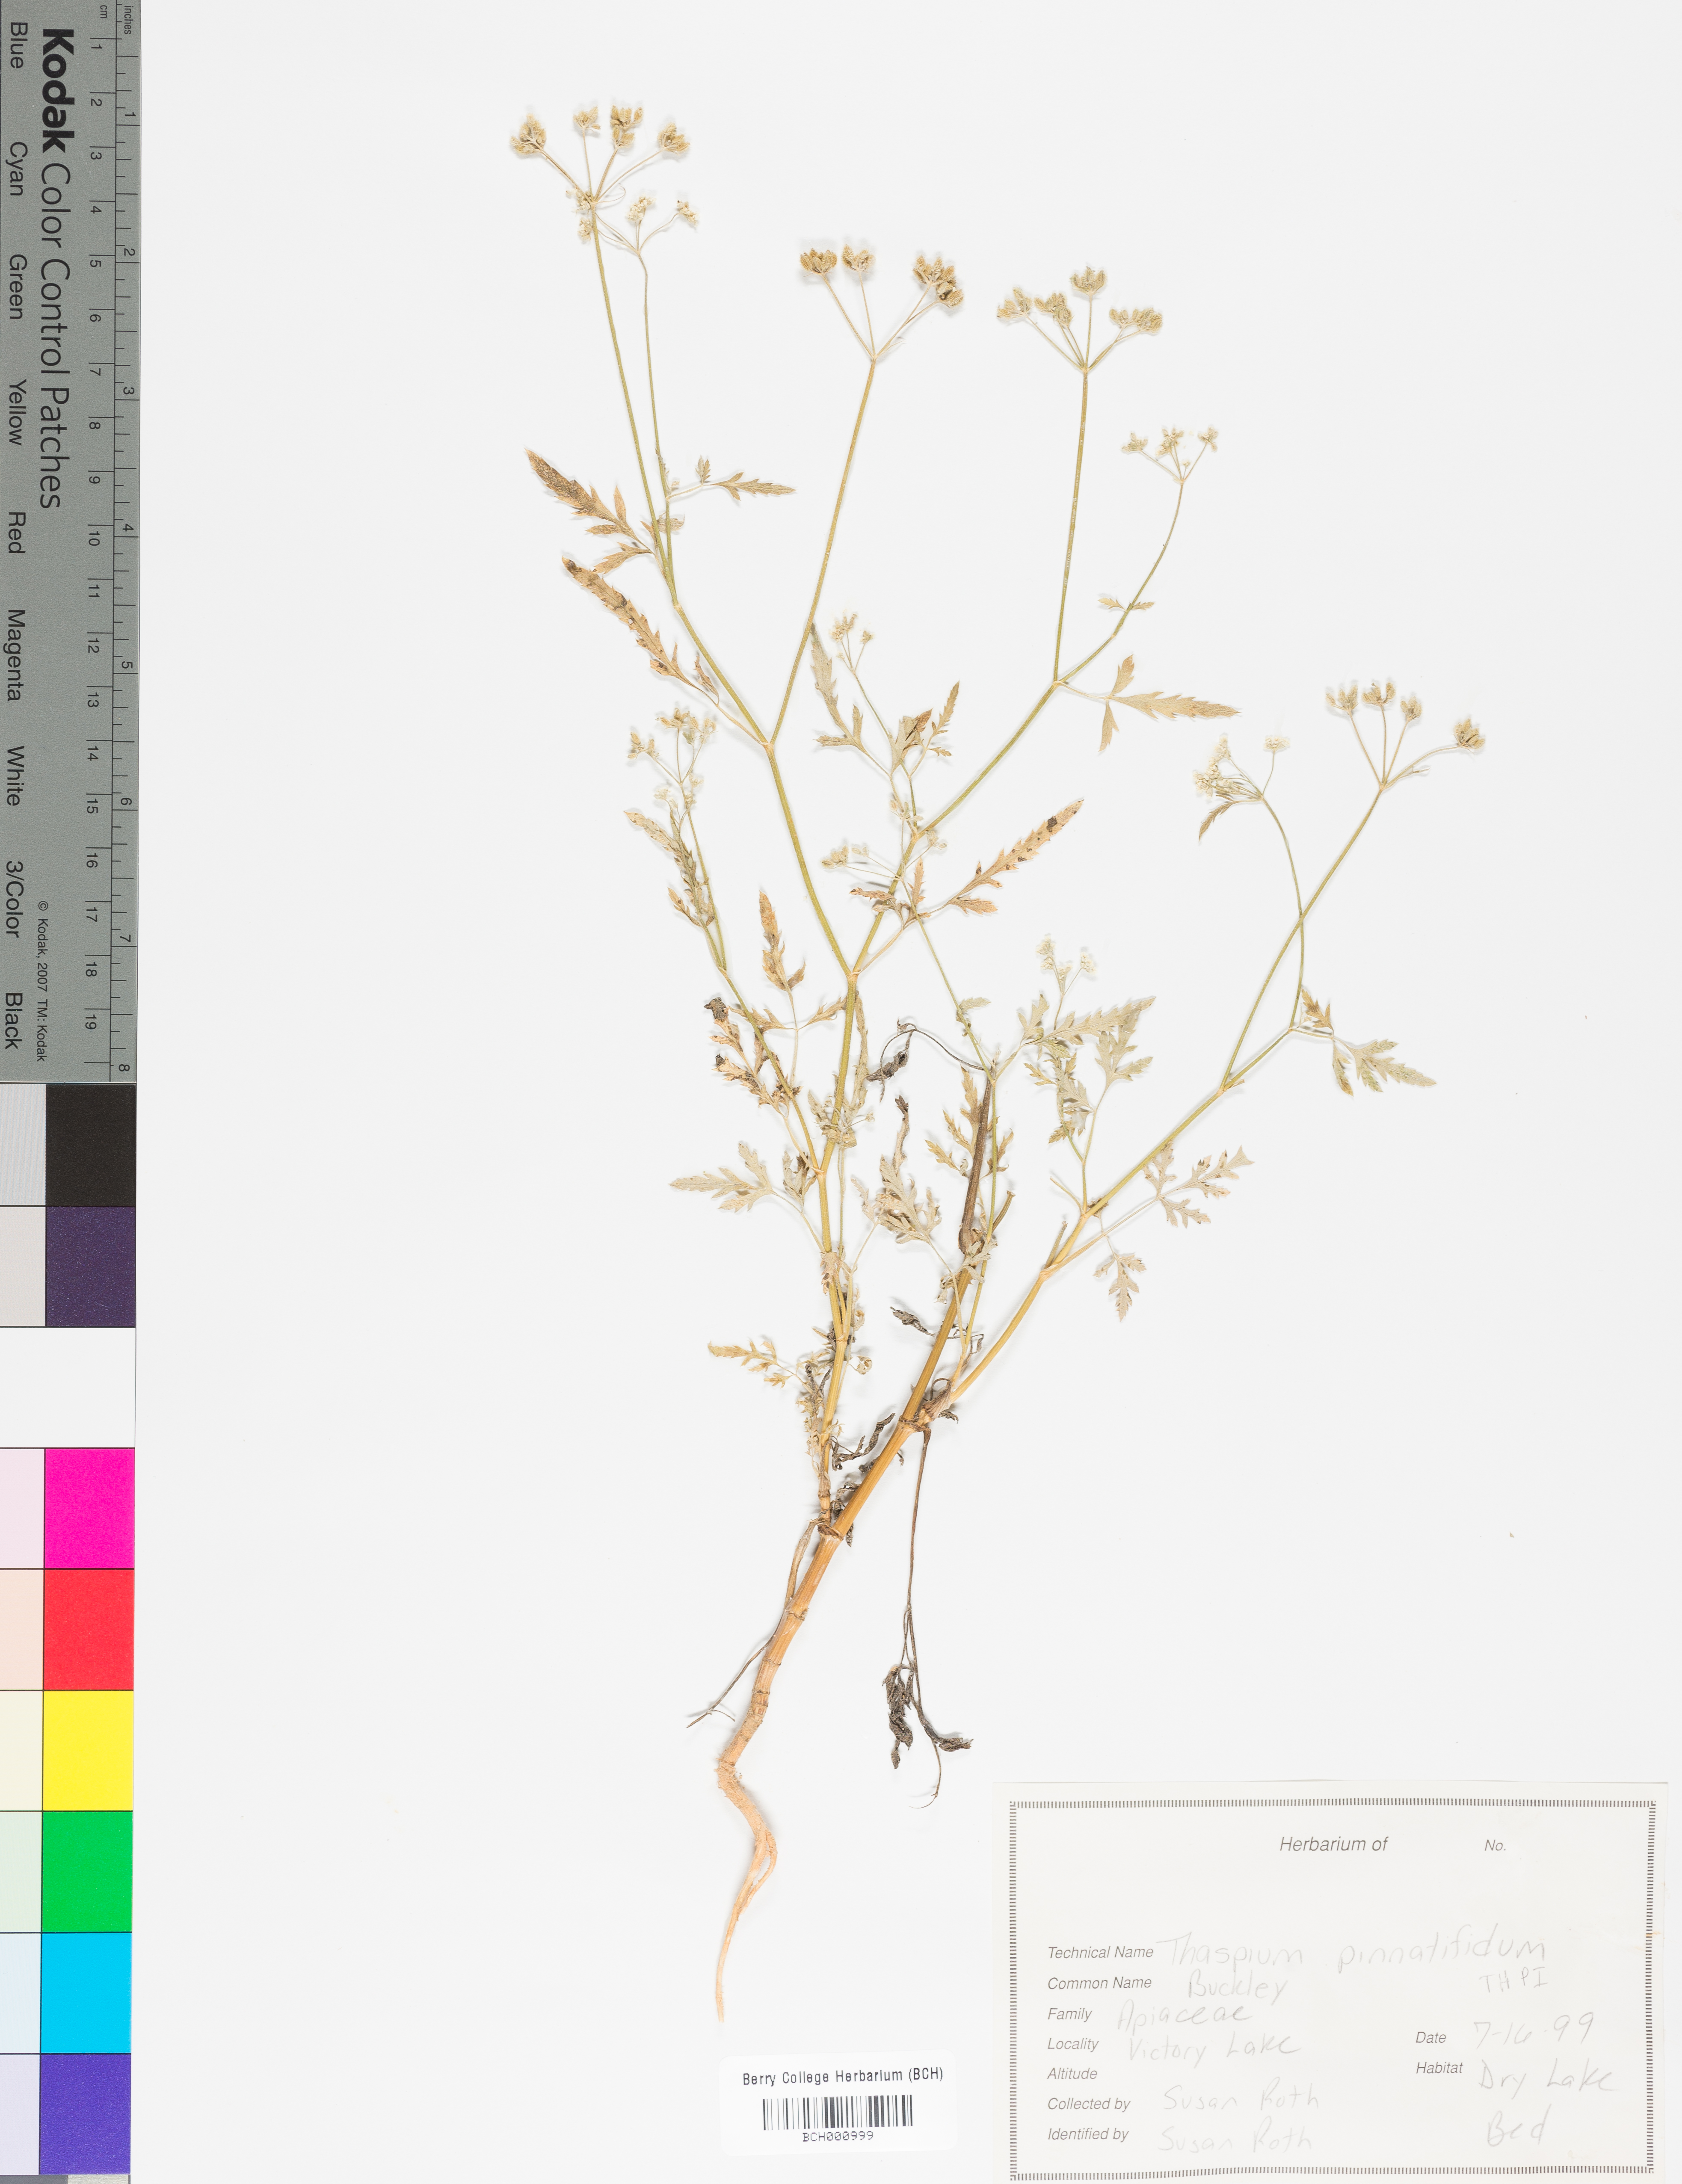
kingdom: Plantae
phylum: Tracheophyta
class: Magnoliopsida
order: Apiales
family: Apiaceae
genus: Thaspium
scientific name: Thaspium pinnatifidum
